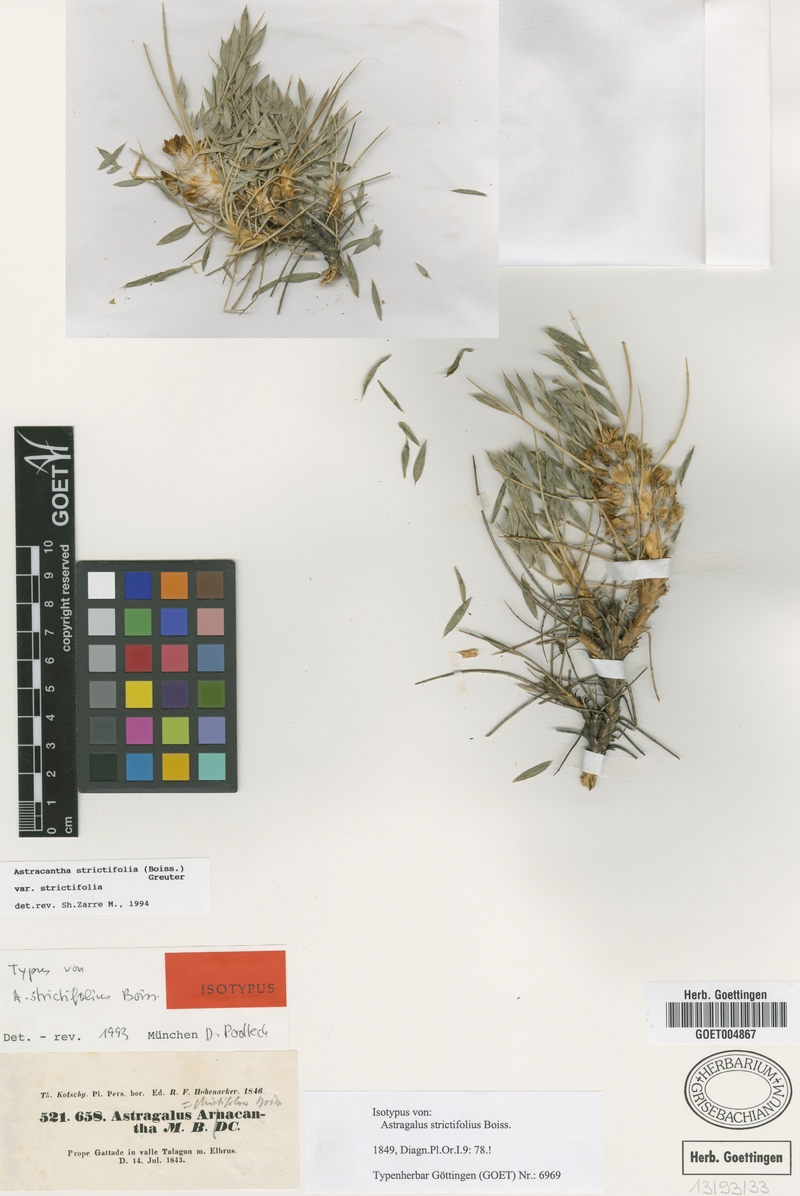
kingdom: Plantae
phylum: Tracheophyta
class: Magnoliopsida
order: Fabales
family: Fabaceae
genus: Astragalus
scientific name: Astragalus strictifolius
